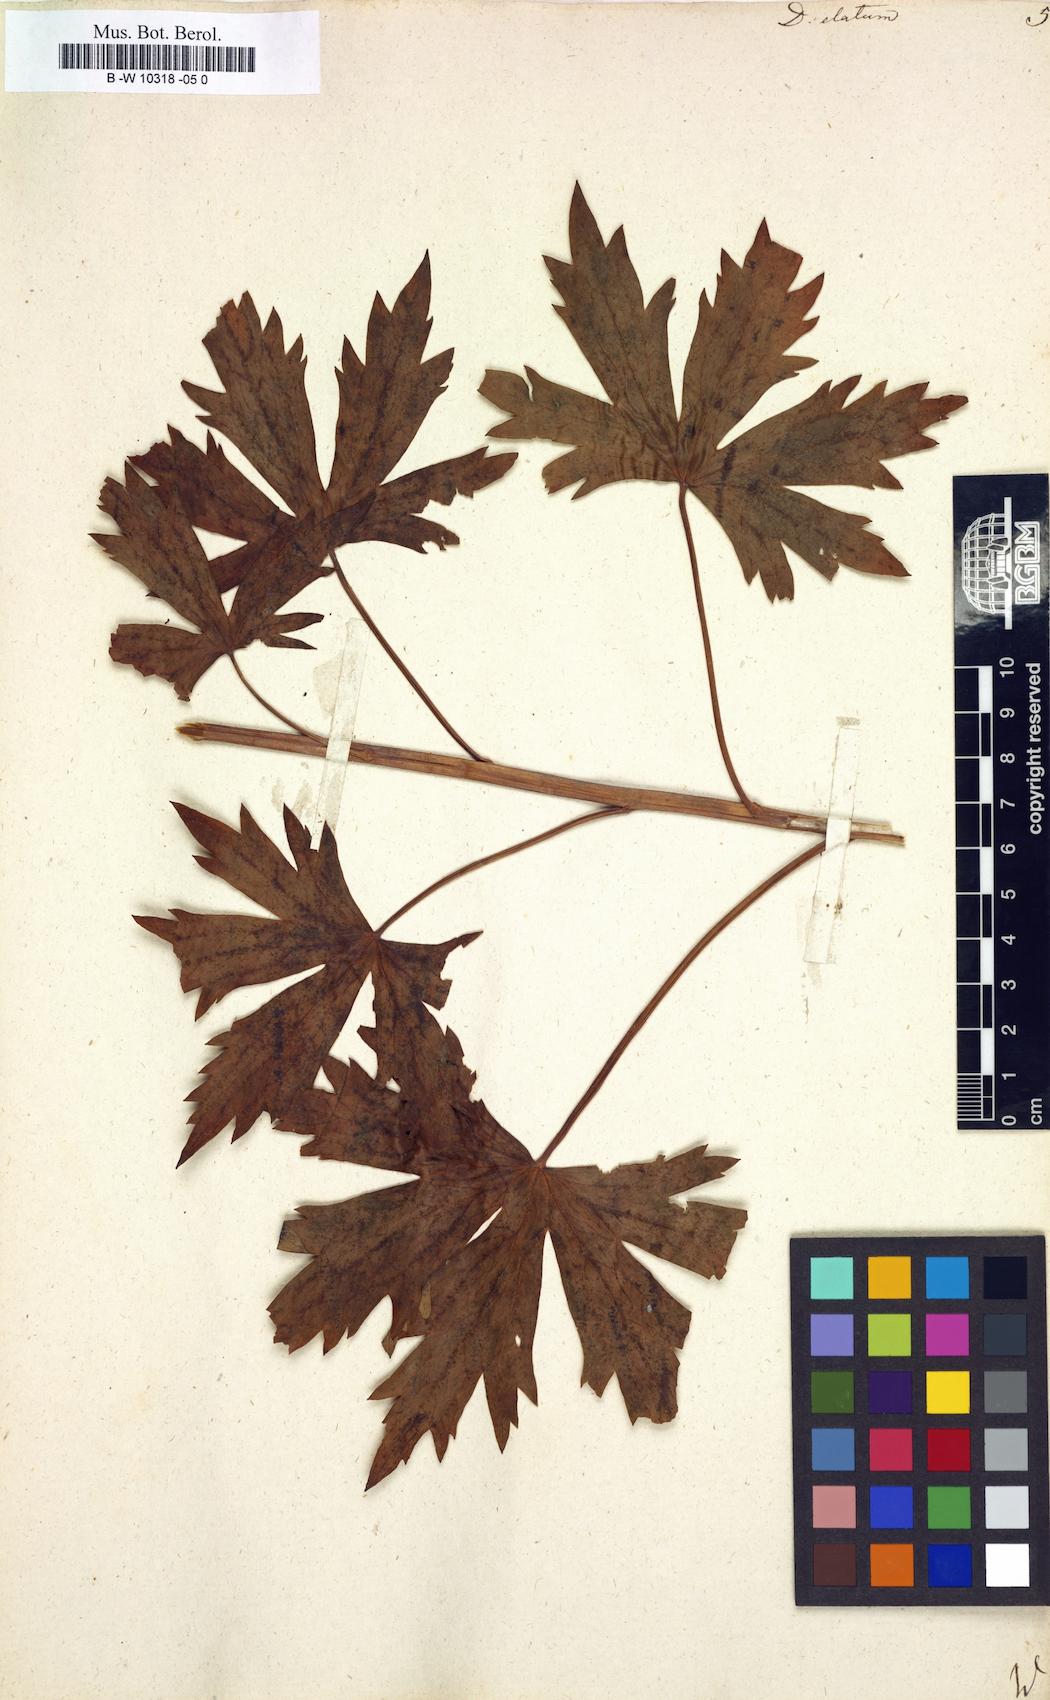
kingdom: Plantae
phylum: Tracheophyta
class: Magnoliopsida
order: Ranunculales
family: Ranunculaceae
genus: Delphinium
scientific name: Delphinium elatum
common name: Candle larkspur
